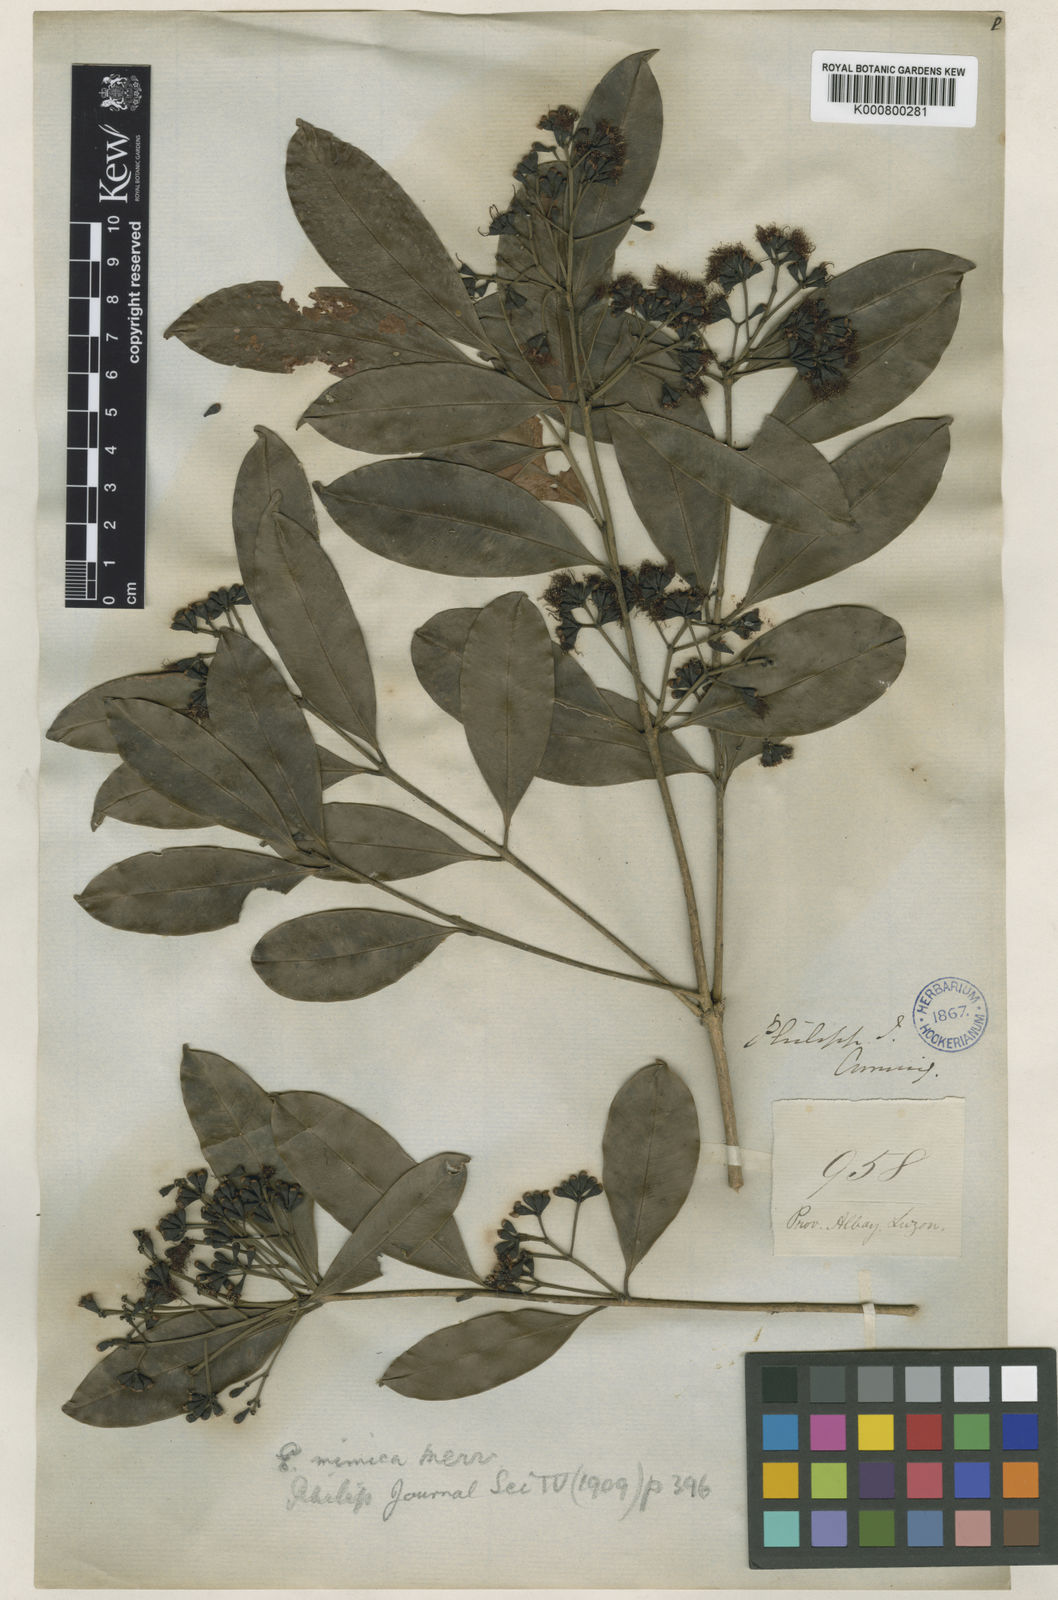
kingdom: Plantae
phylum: Tracheophyta
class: Magnoliopsida
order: Myrtales
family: Myrtaceae
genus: Syzygium
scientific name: Syzygium mimicum
